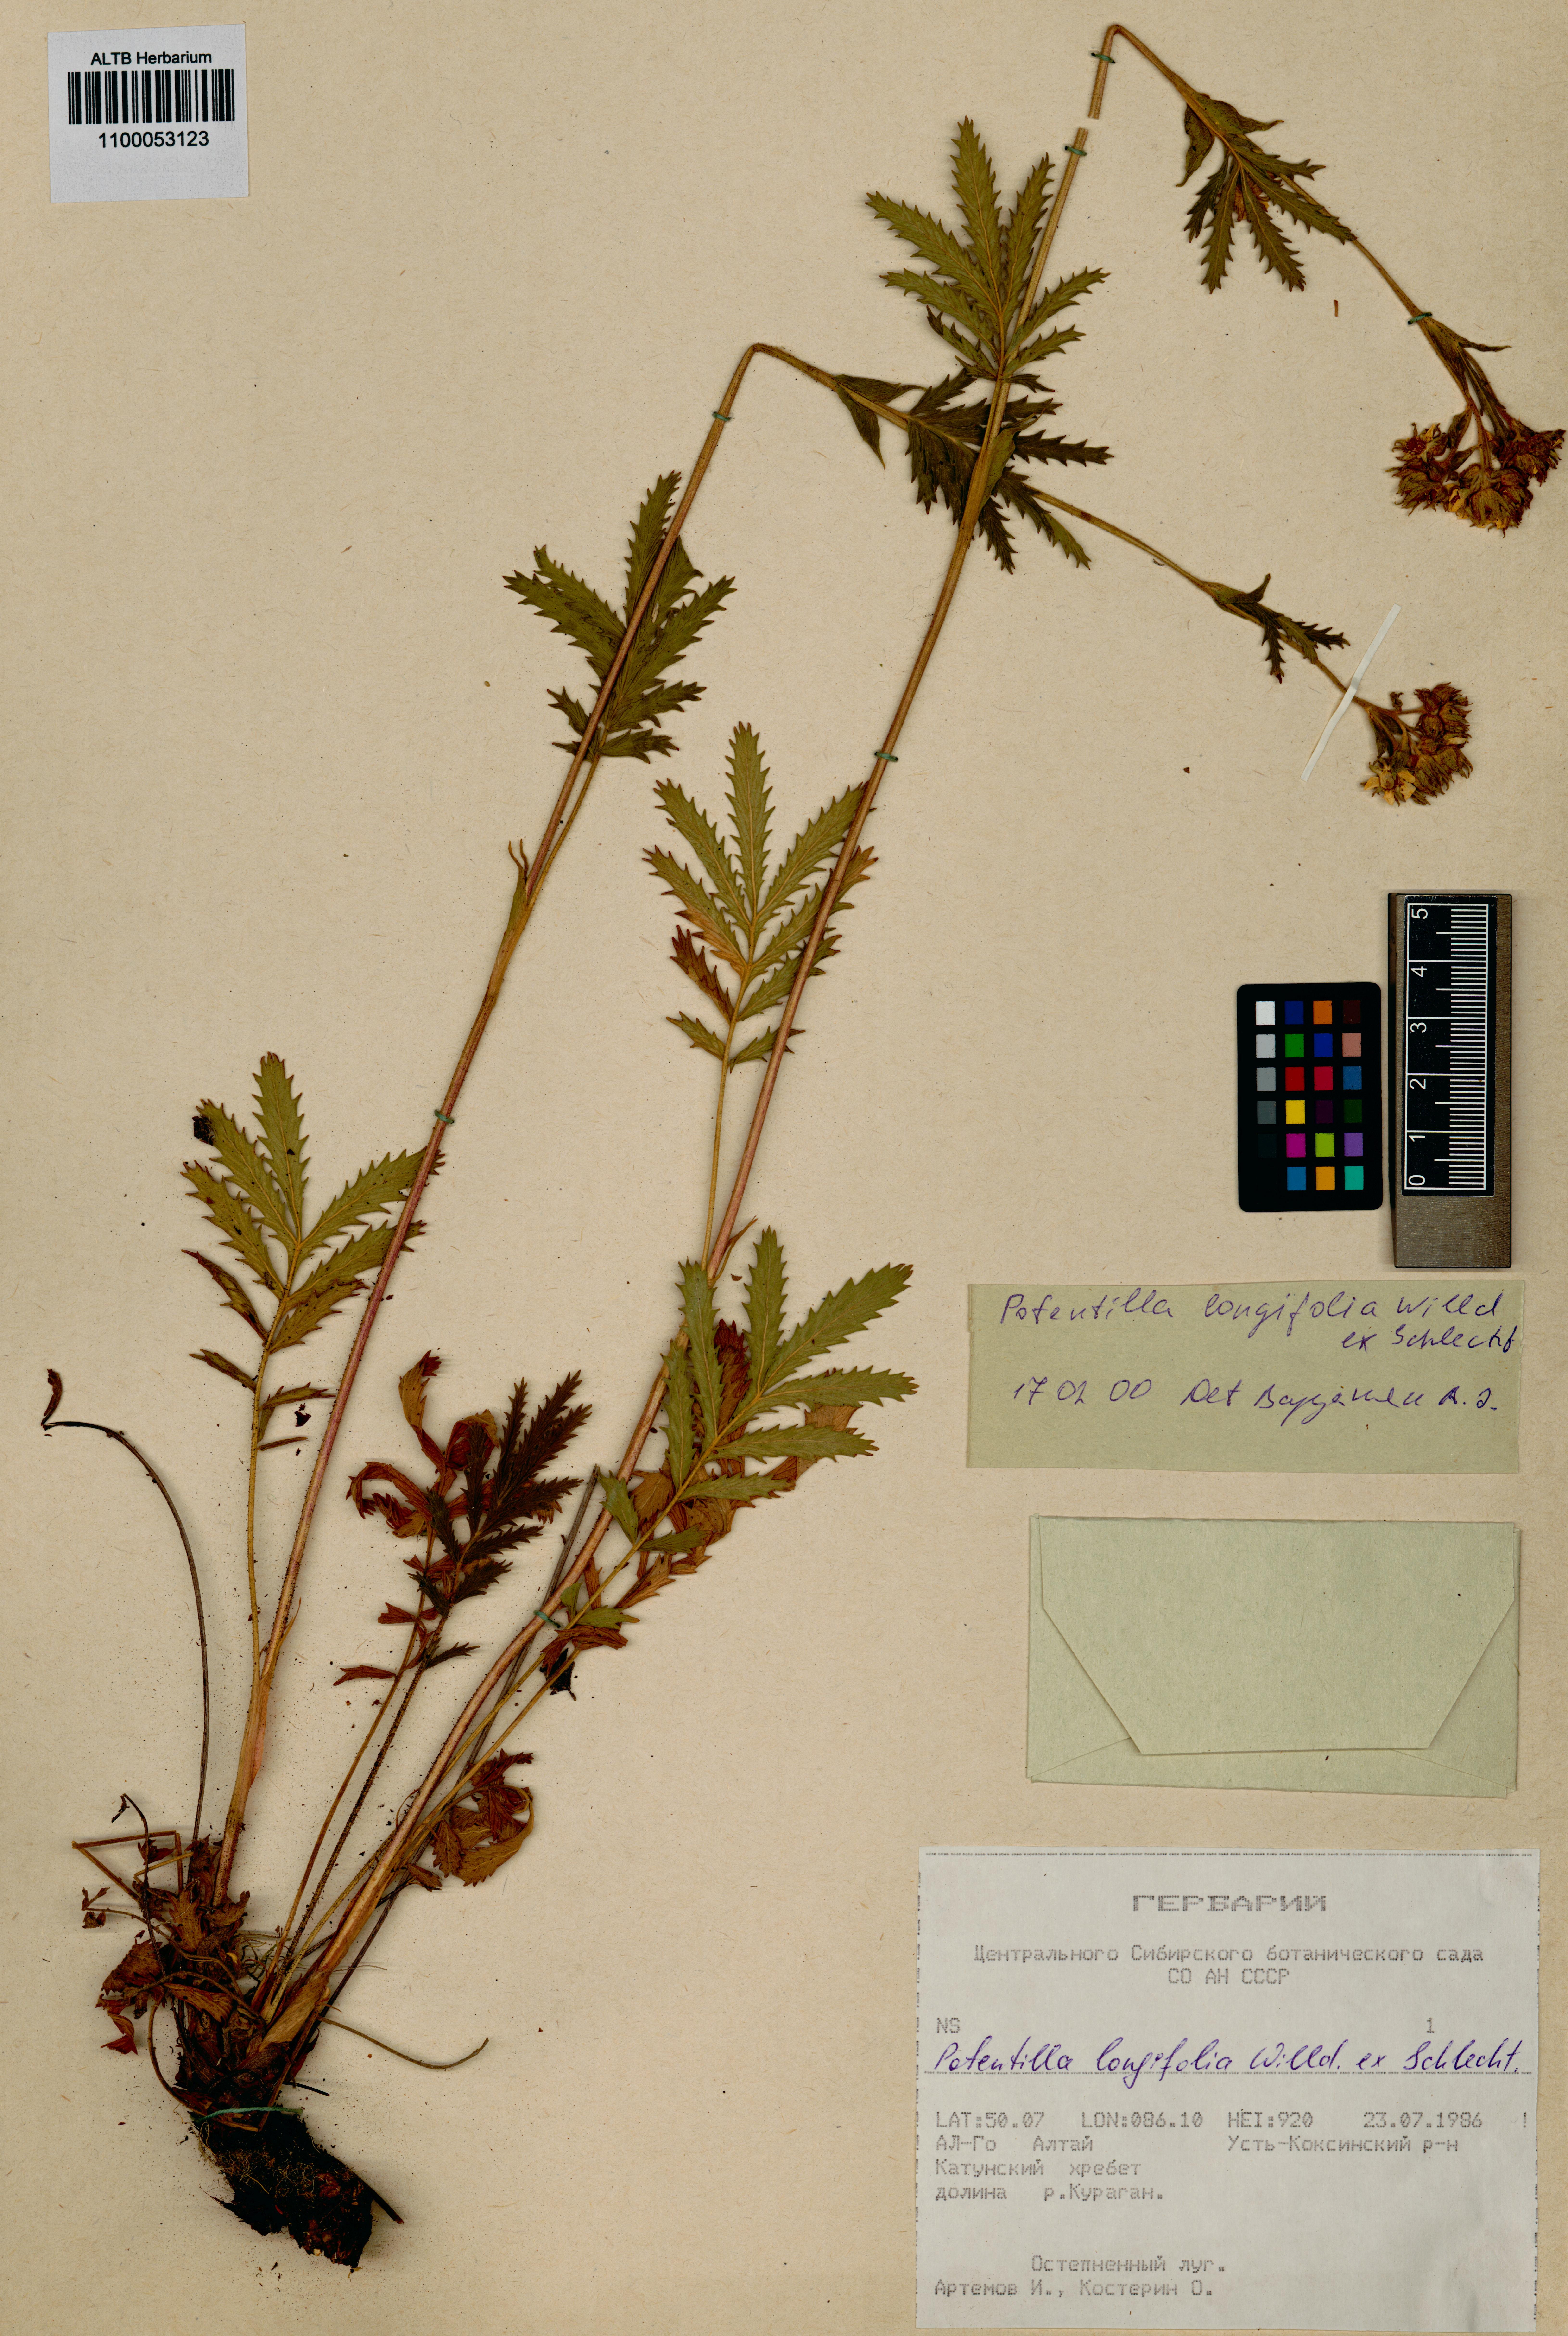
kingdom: Plantae
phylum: Tracheophyta
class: Magnoliopsida
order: Rosales
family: Rosaceae
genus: Potentilla
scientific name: Potentilla longifolia
